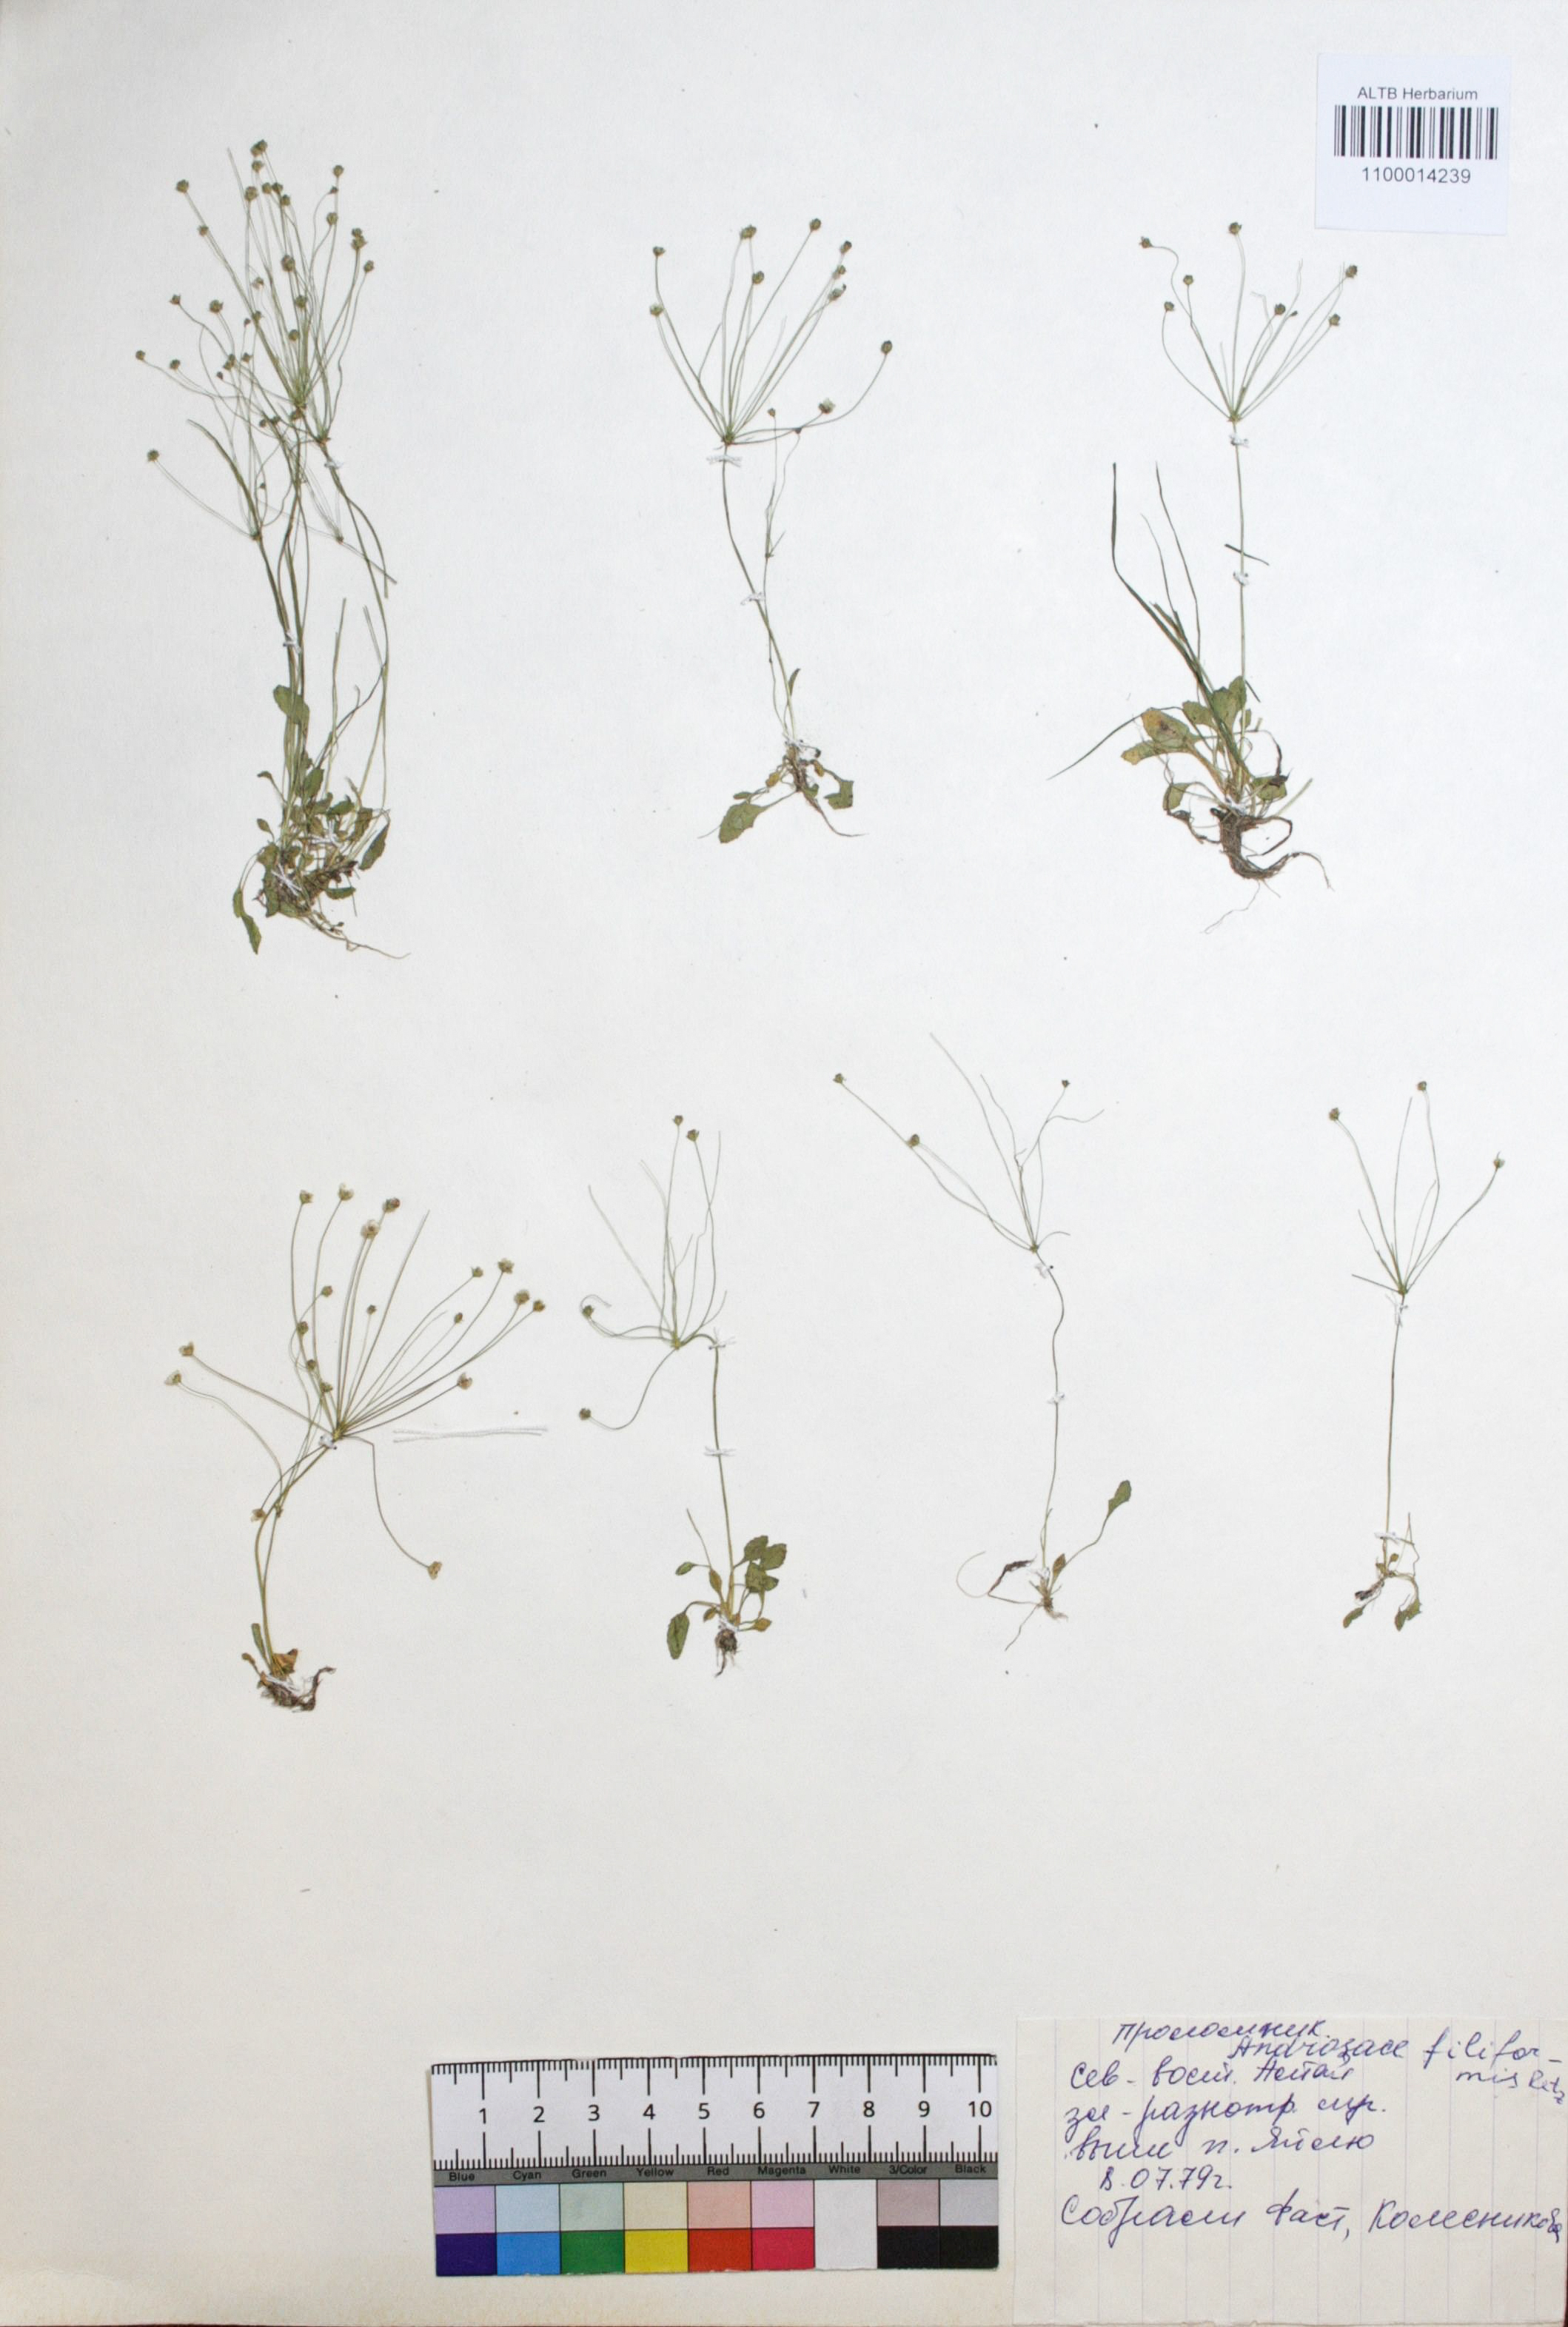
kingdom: Plantae
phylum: Tracheophyta
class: Magnoliopsida
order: Ericales
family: Primulaceae
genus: Androsace
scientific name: Androsace filiformis
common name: Filiform rock jasmine
